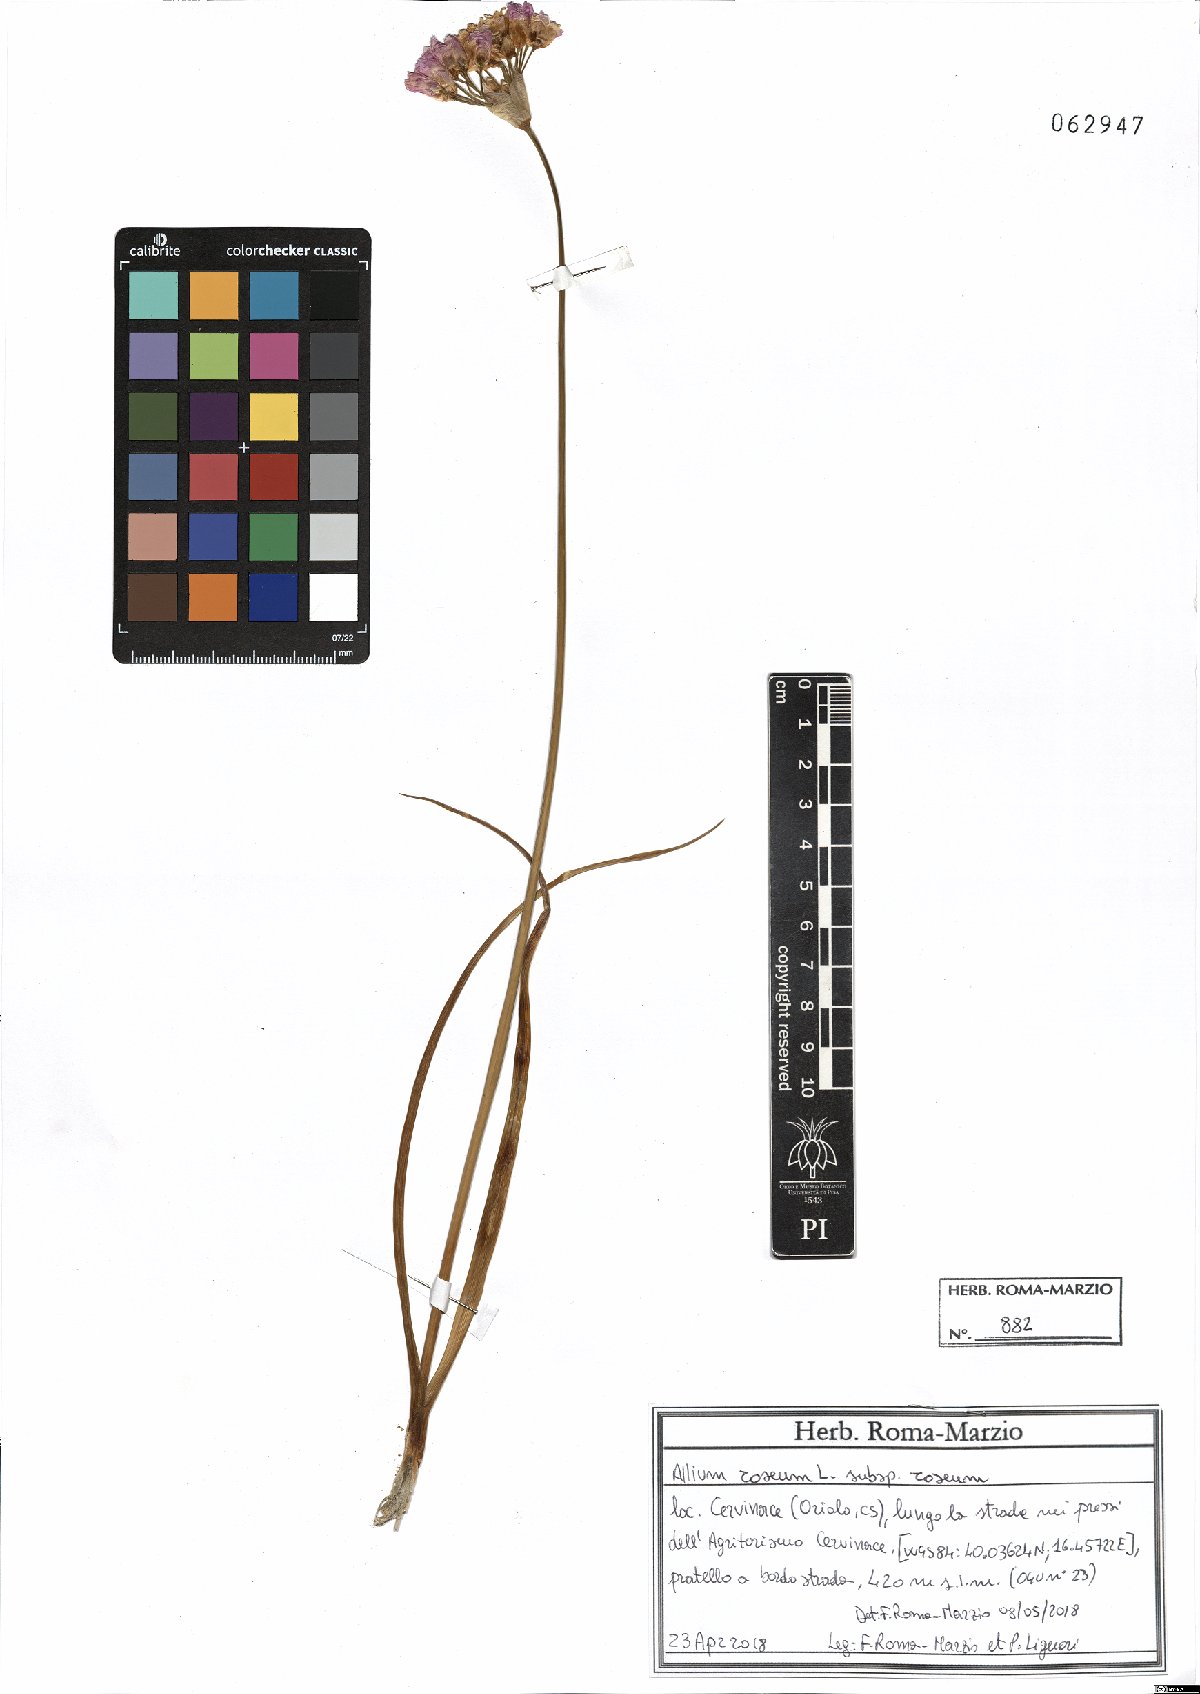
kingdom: Plantae
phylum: Tracheophyta
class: Liliopsida
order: Asparagales
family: Amaryllidaceae
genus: Allium
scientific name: Allium roseum
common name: Rosy garlic
